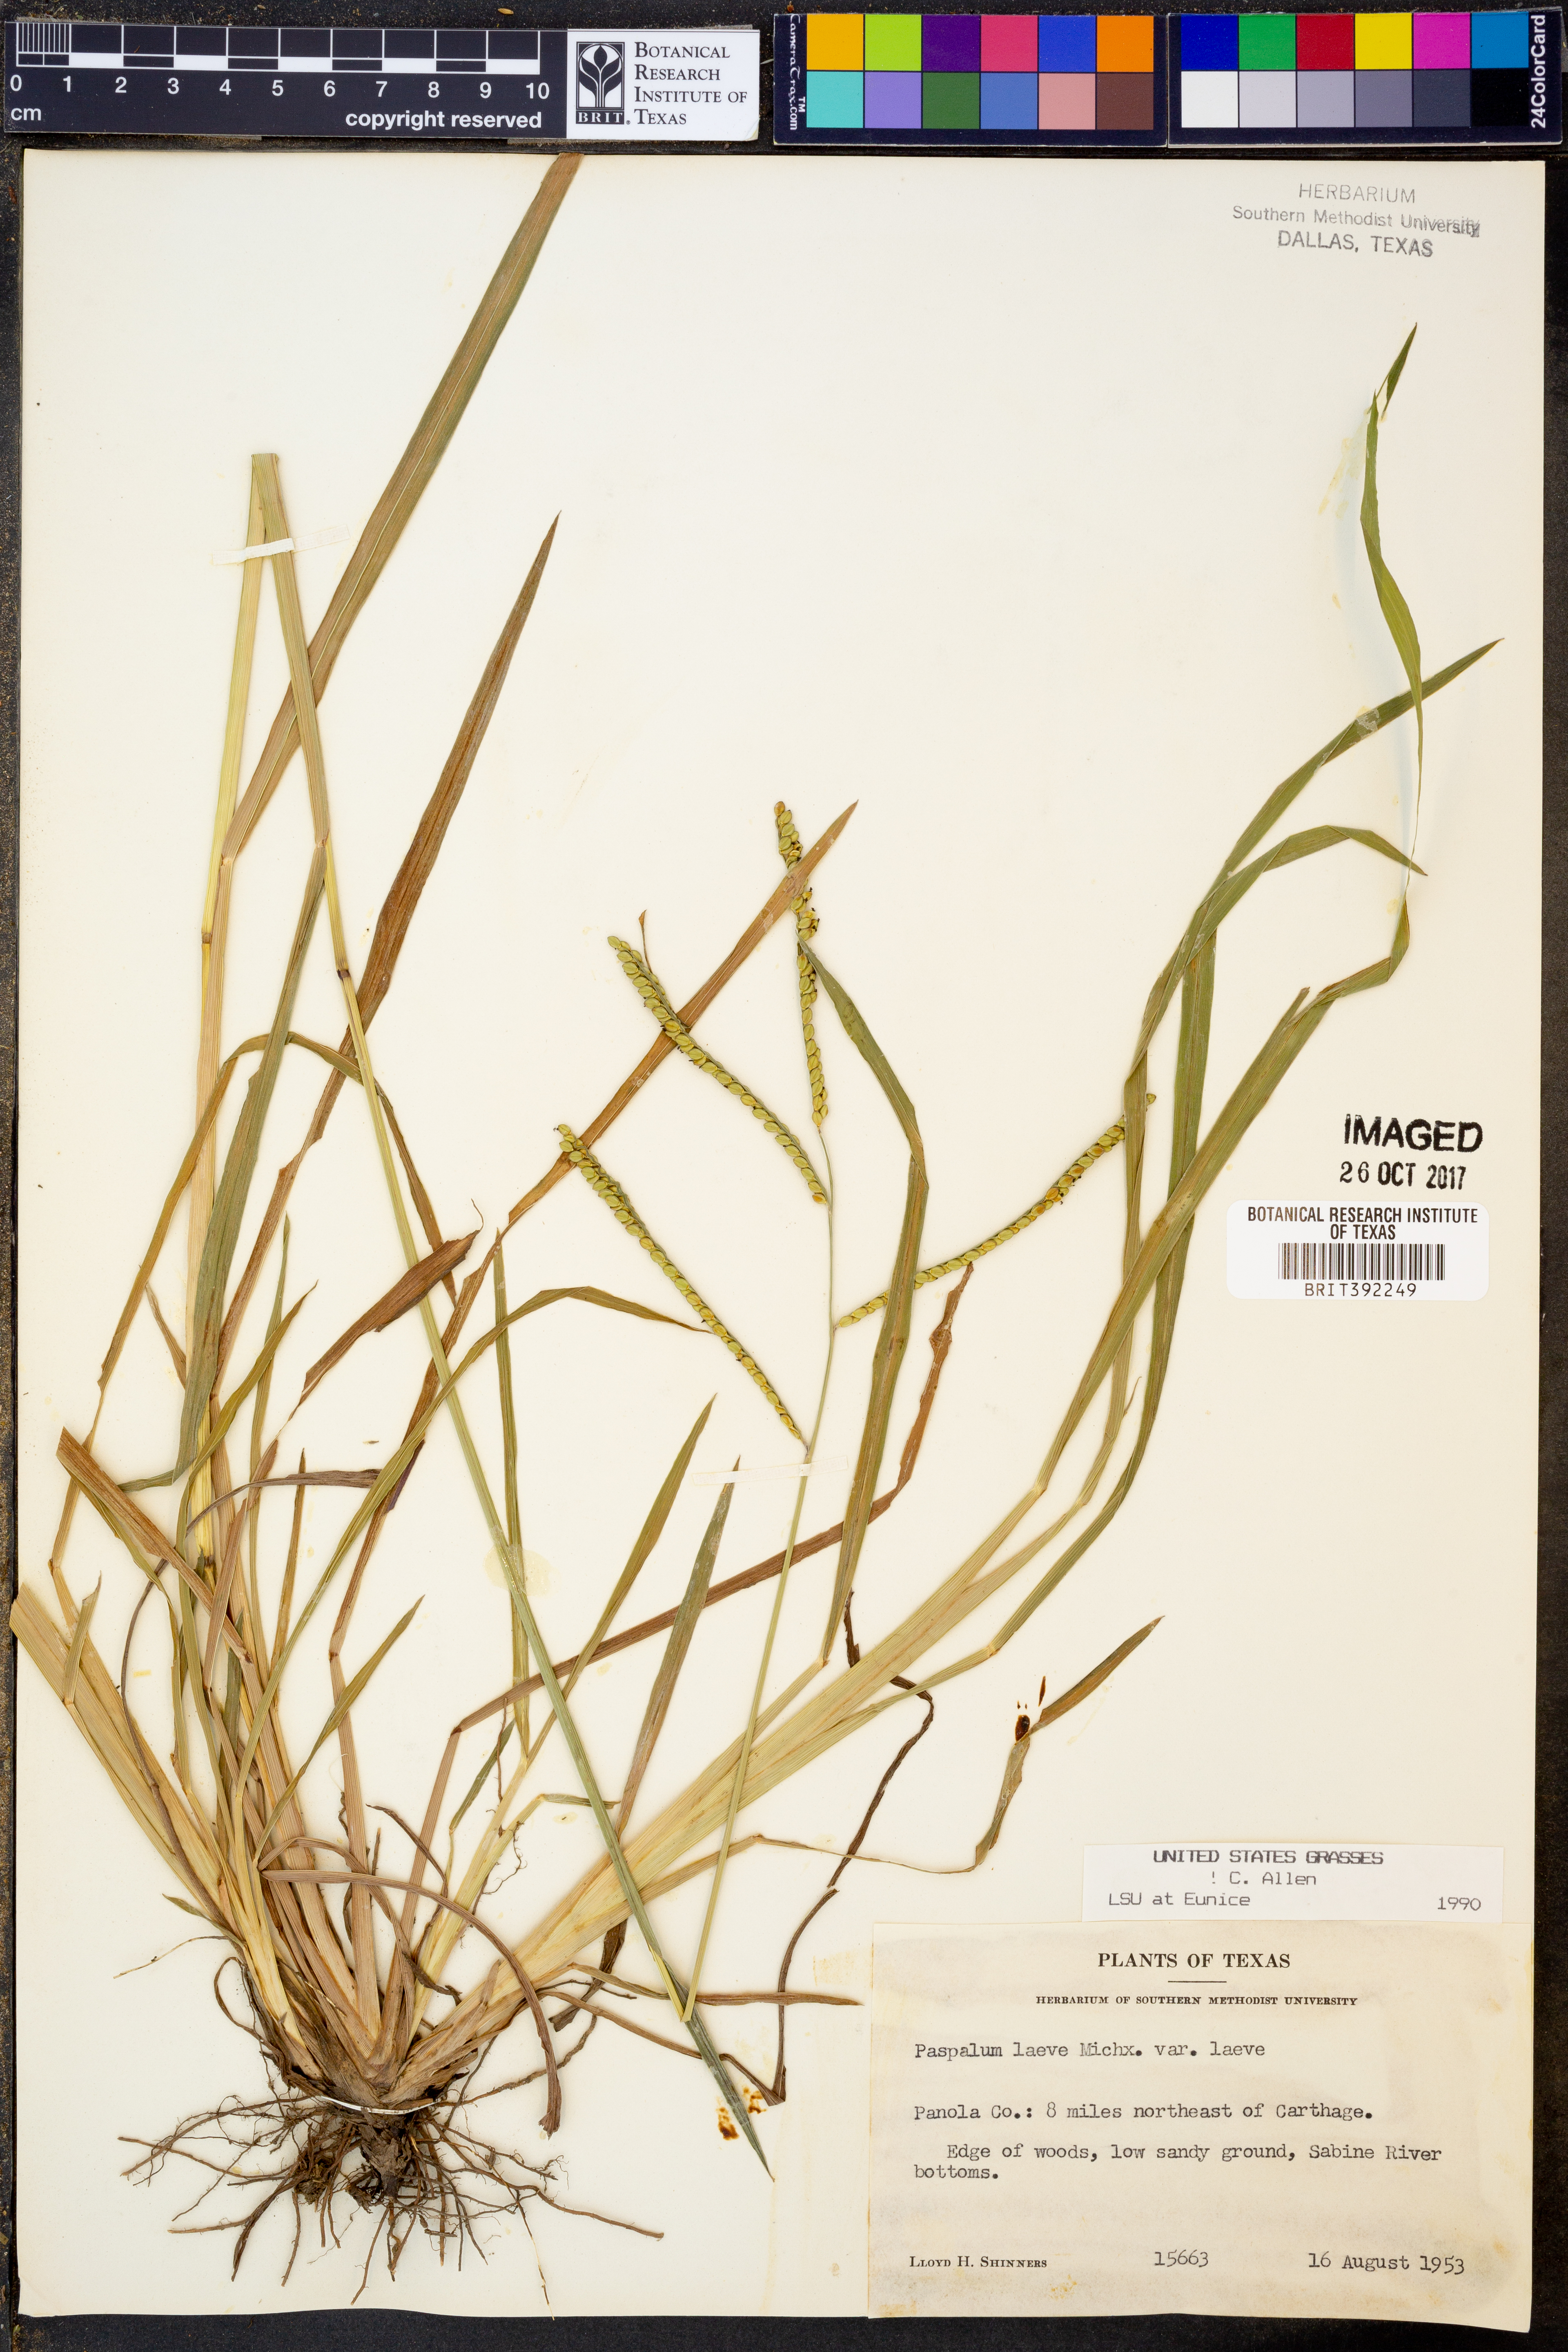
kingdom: Plantae
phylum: Tracheophyta
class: Liliopsida
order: Poales
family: Poaceae
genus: Paspalum
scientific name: Paspalum laeve
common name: Field paspalum
